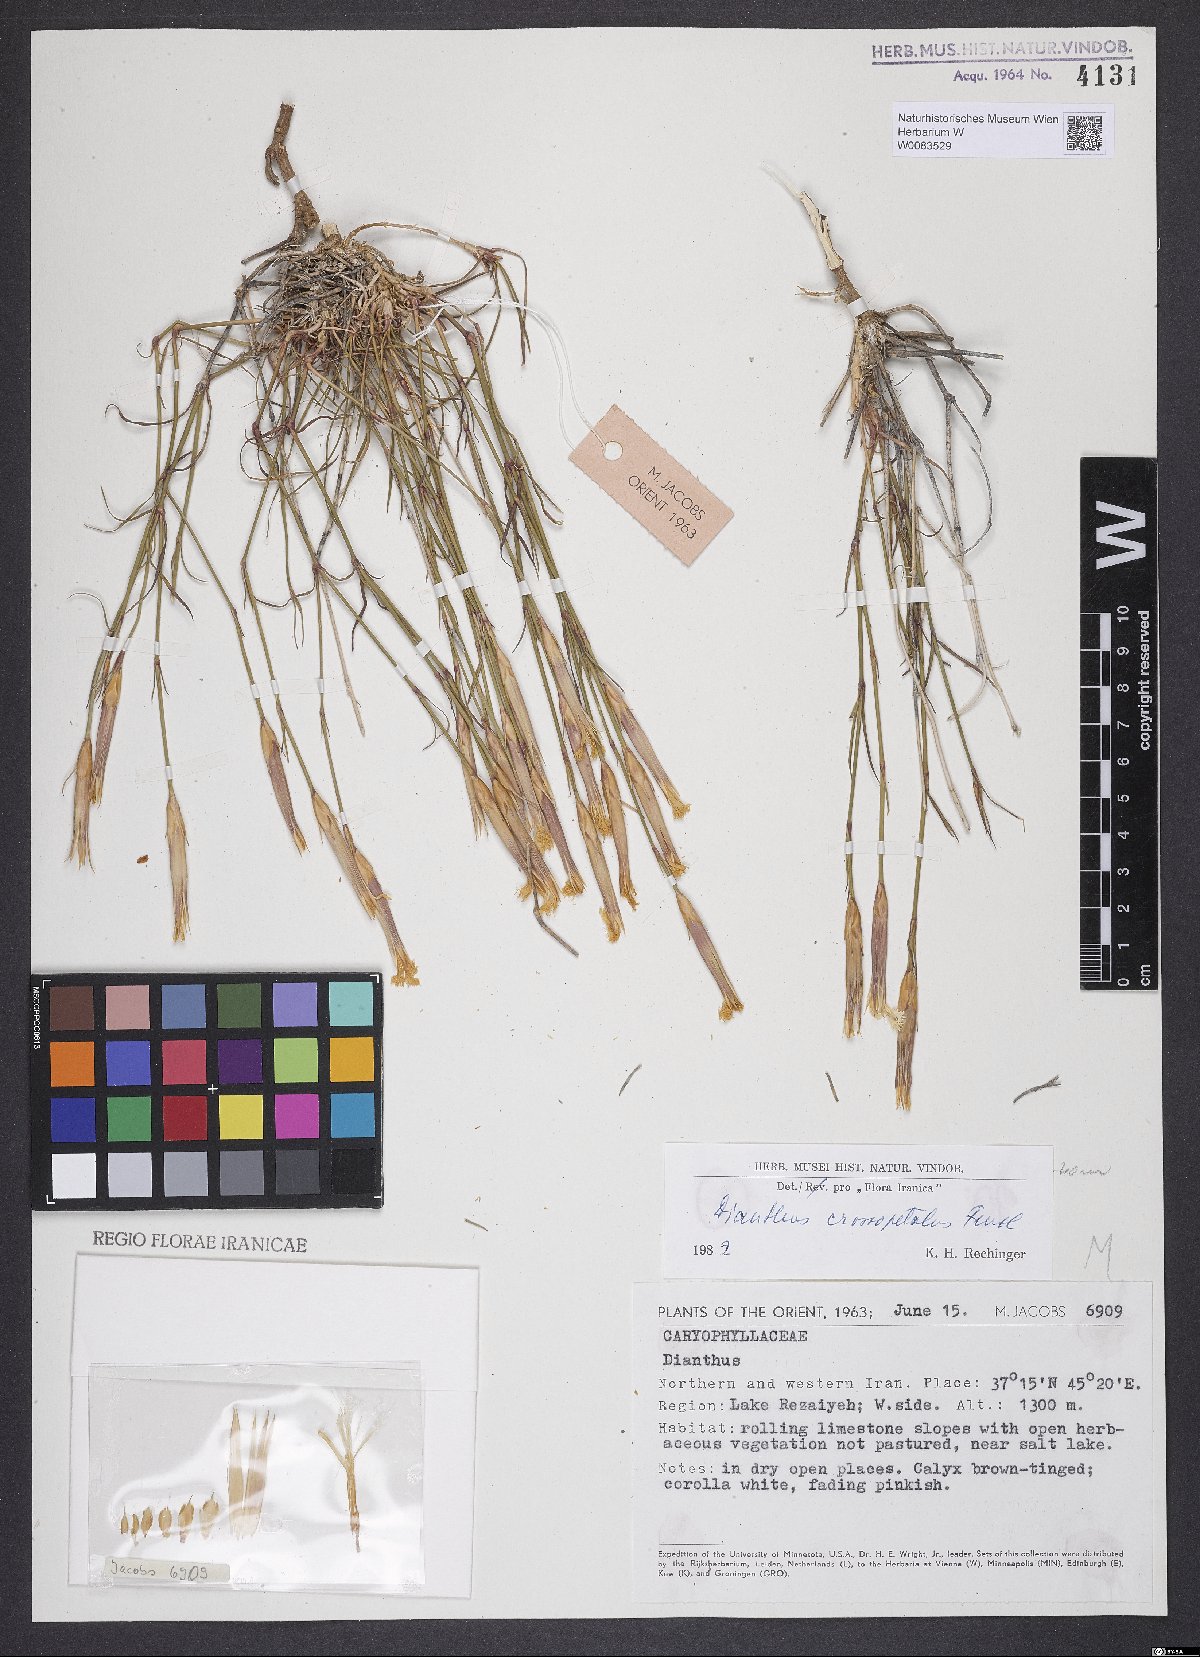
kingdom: Plantae
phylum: Tracheophyta
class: Magnoliopsida
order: Caryophyllales
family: Caryophyllaceae
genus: Dianthus
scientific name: Dianthus crossopetalus
